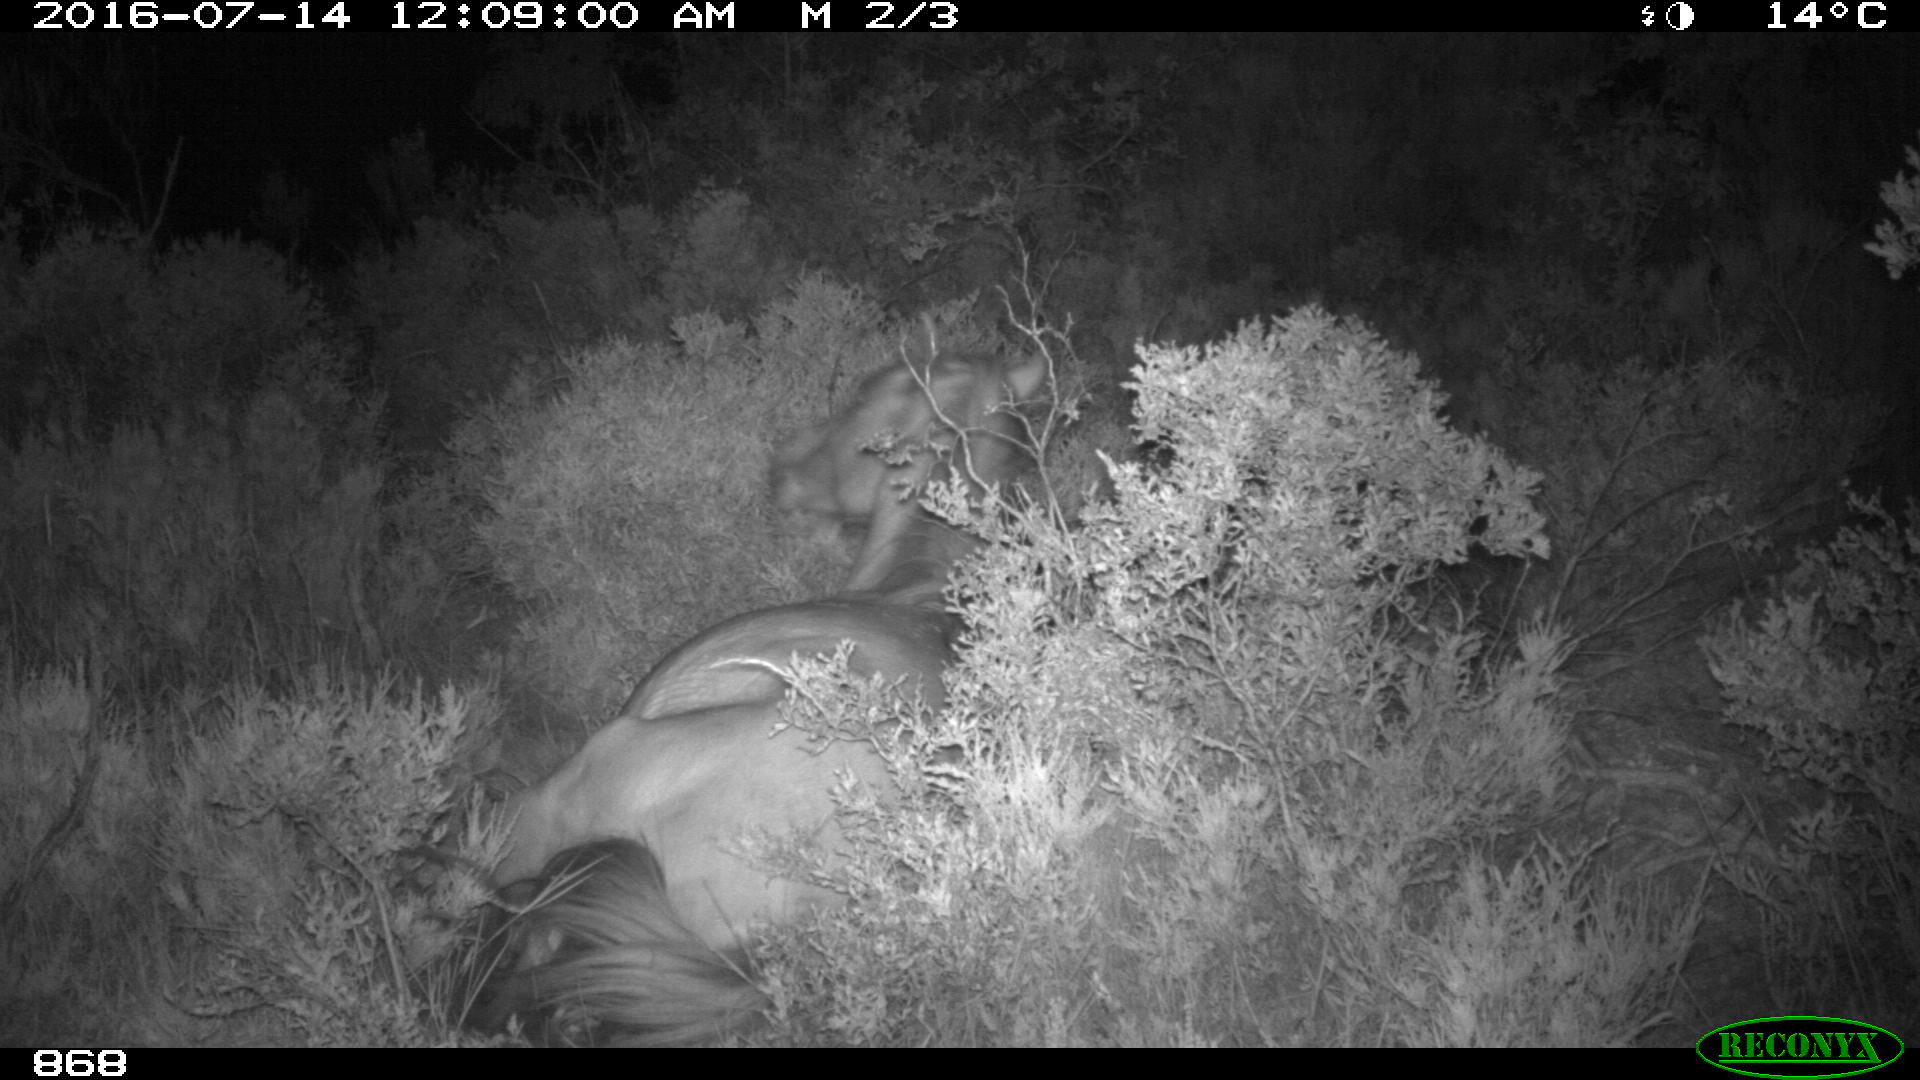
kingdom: Animalia
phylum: Chordata
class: Mammalia
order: Perissodactyla
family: Equidae
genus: Equus
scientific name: Equus caballus
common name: Horse
